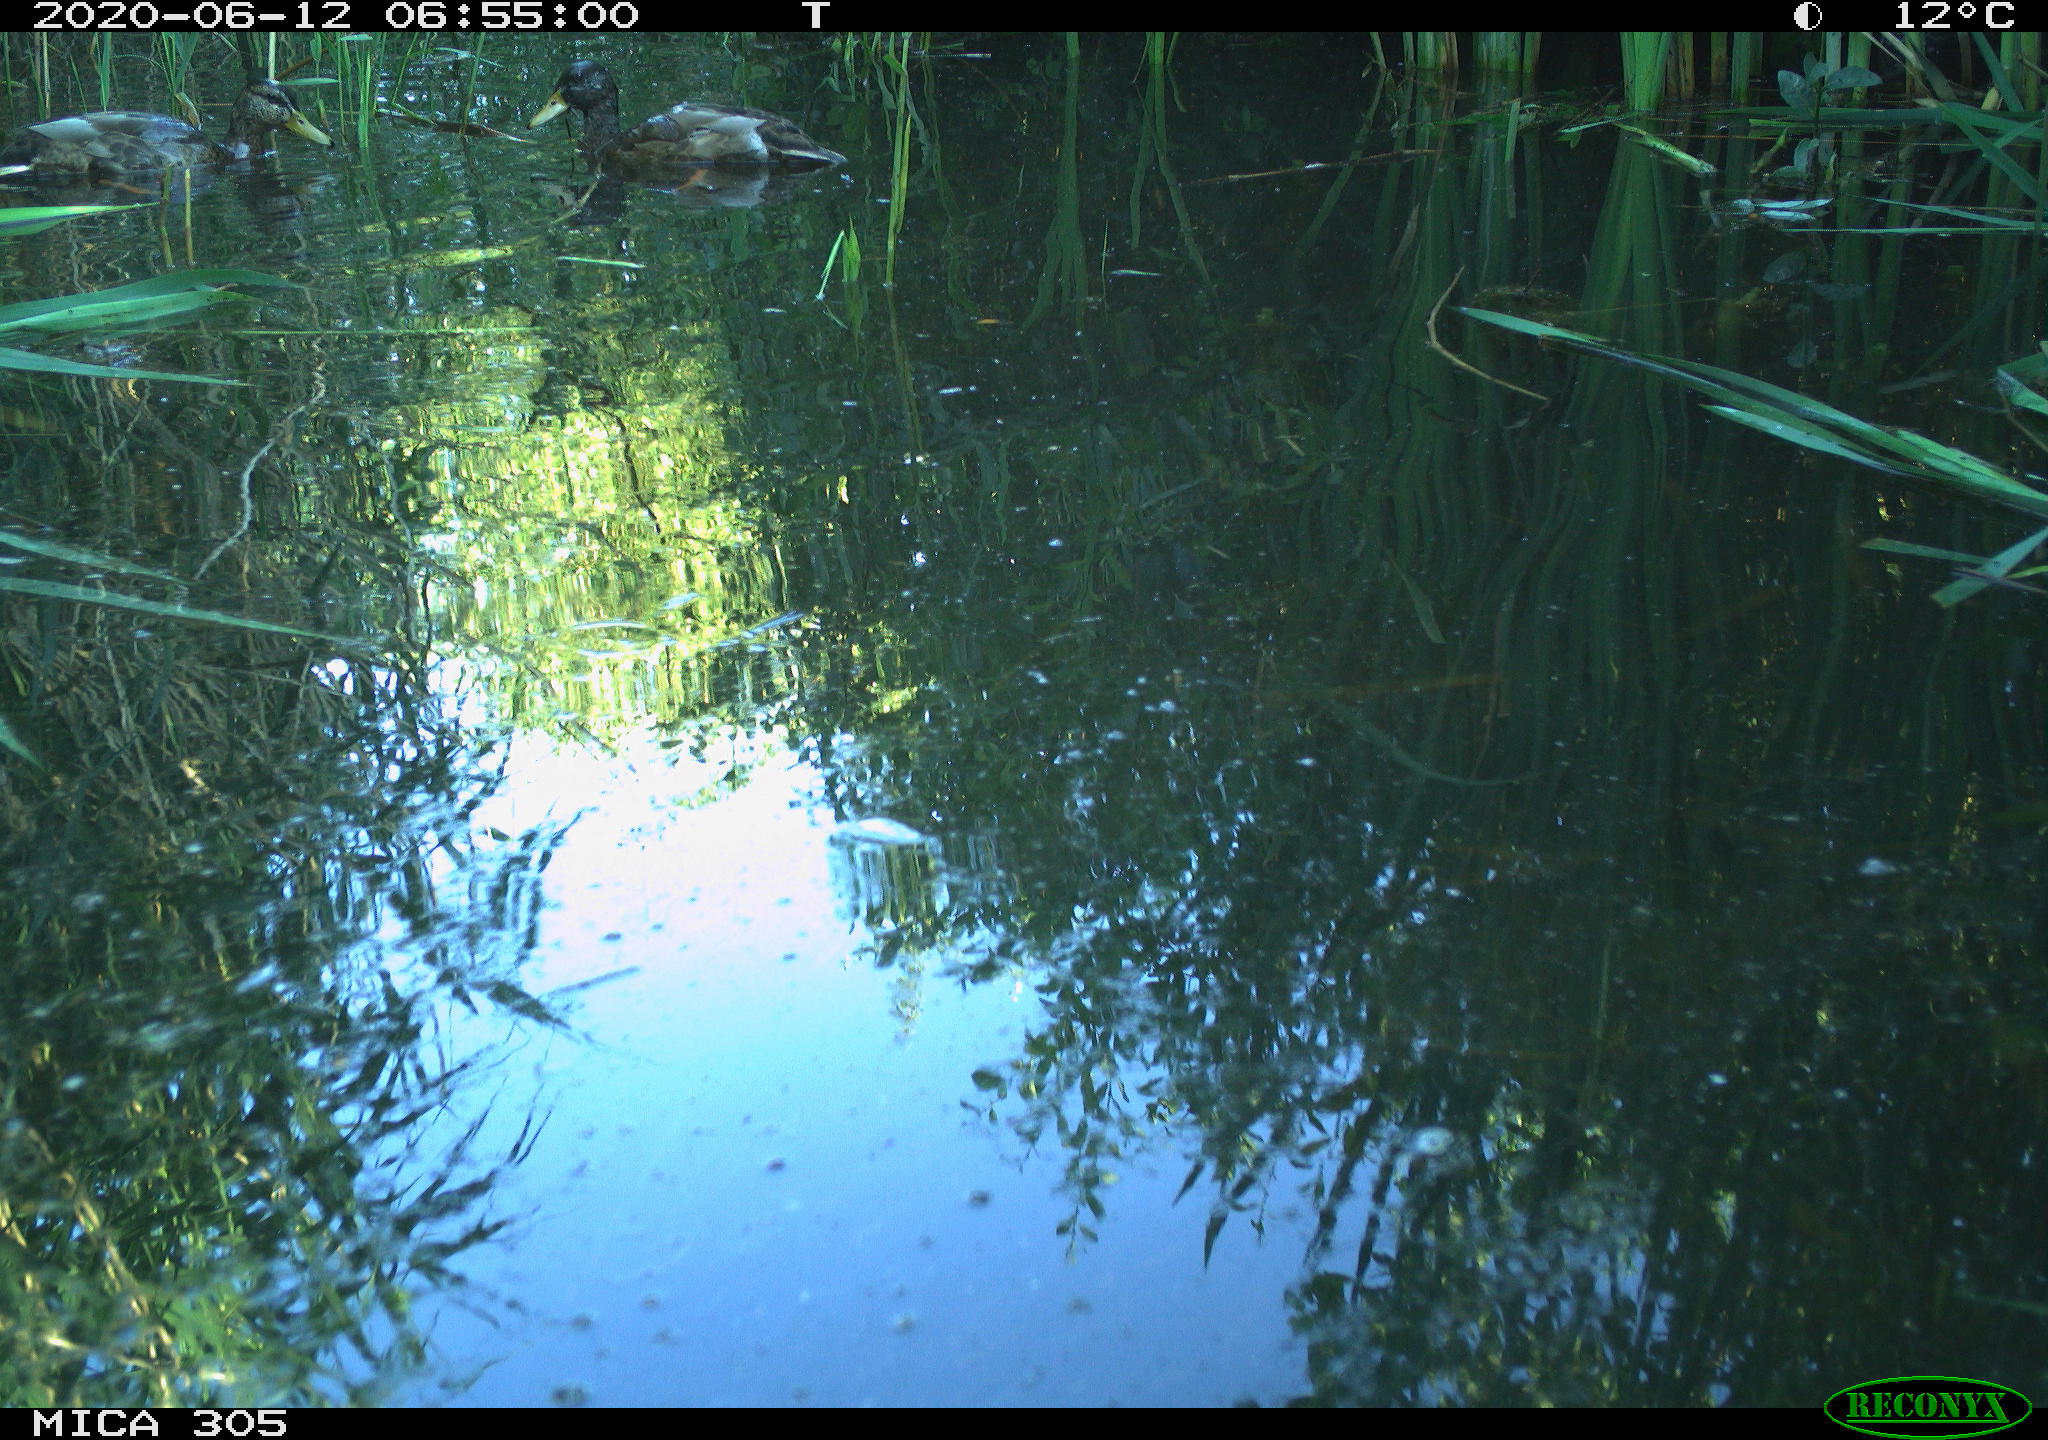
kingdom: Animalia
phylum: Chordata
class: Aves
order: Anseriformes
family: Anatidae
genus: Anas
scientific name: Anas platyrhynchos
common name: Mallard
